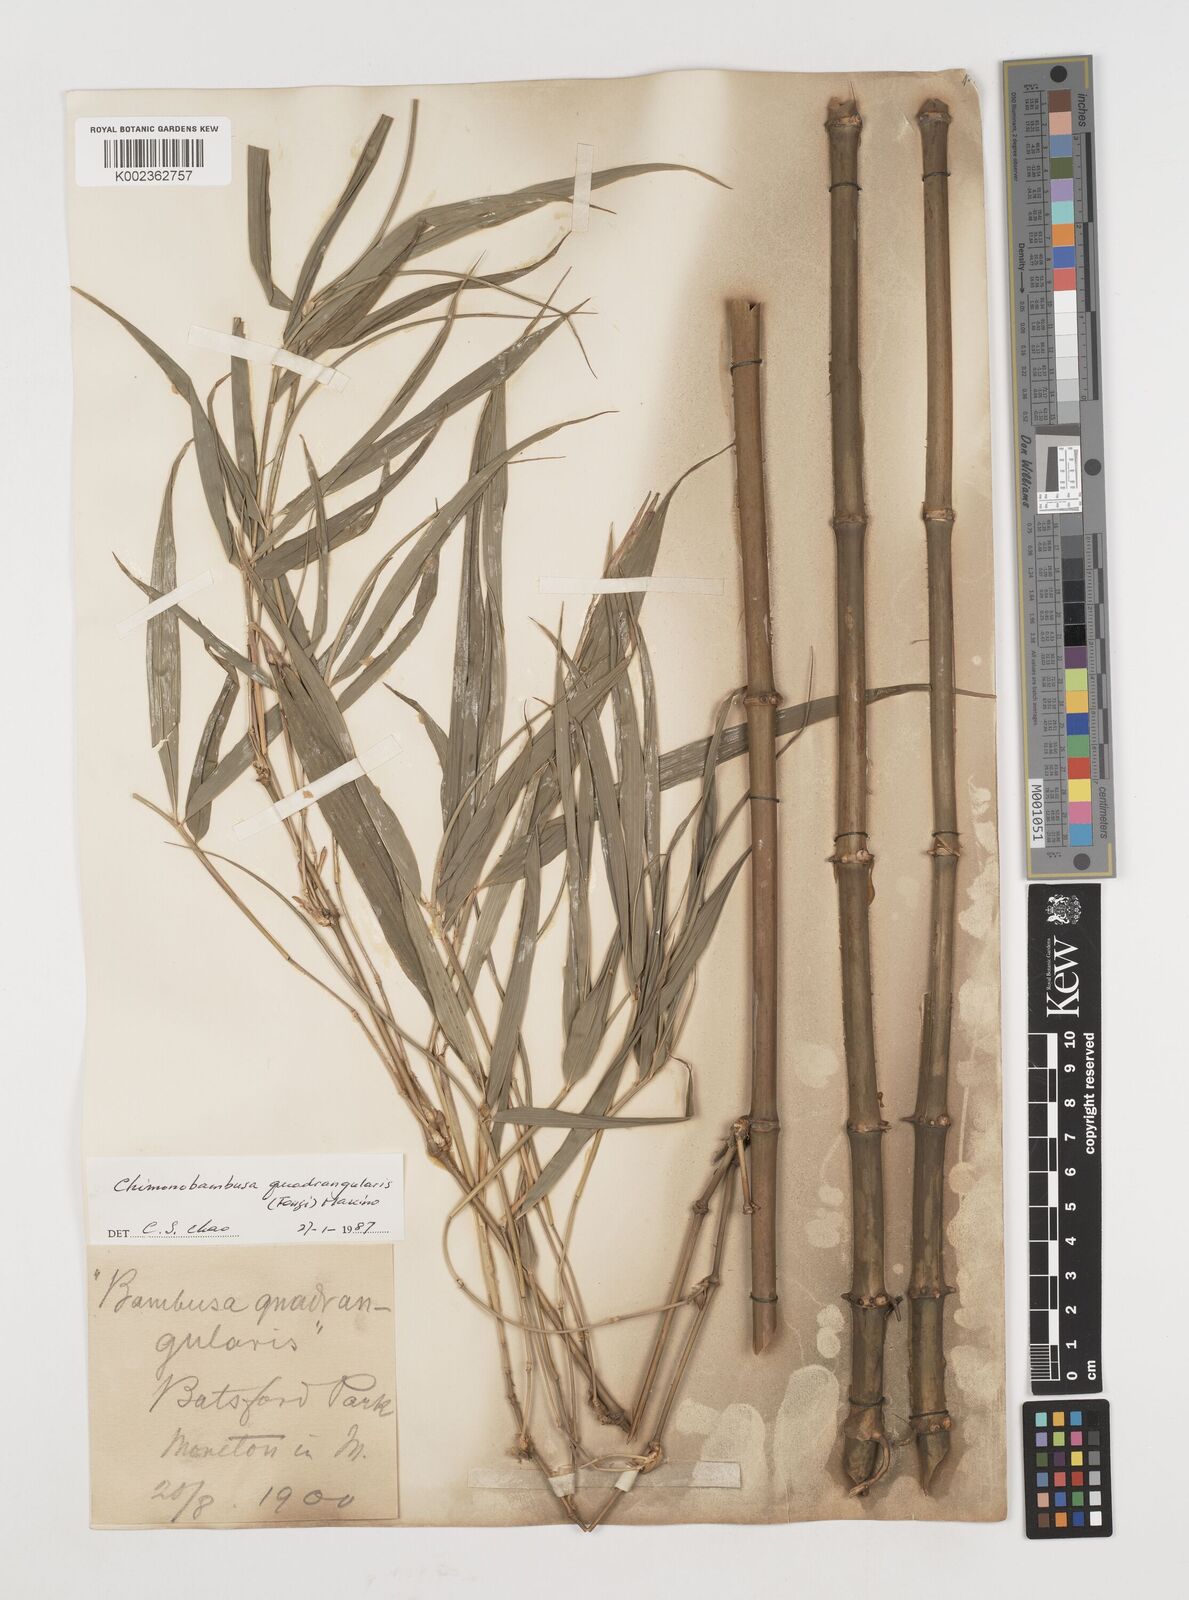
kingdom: Plantae
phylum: Tracheophyta
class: Liliopsida
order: Poales
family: Poaceae
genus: Chimonobambusa
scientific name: Chimonobambusa quadrangularis
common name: Square-stemmed bamboo
